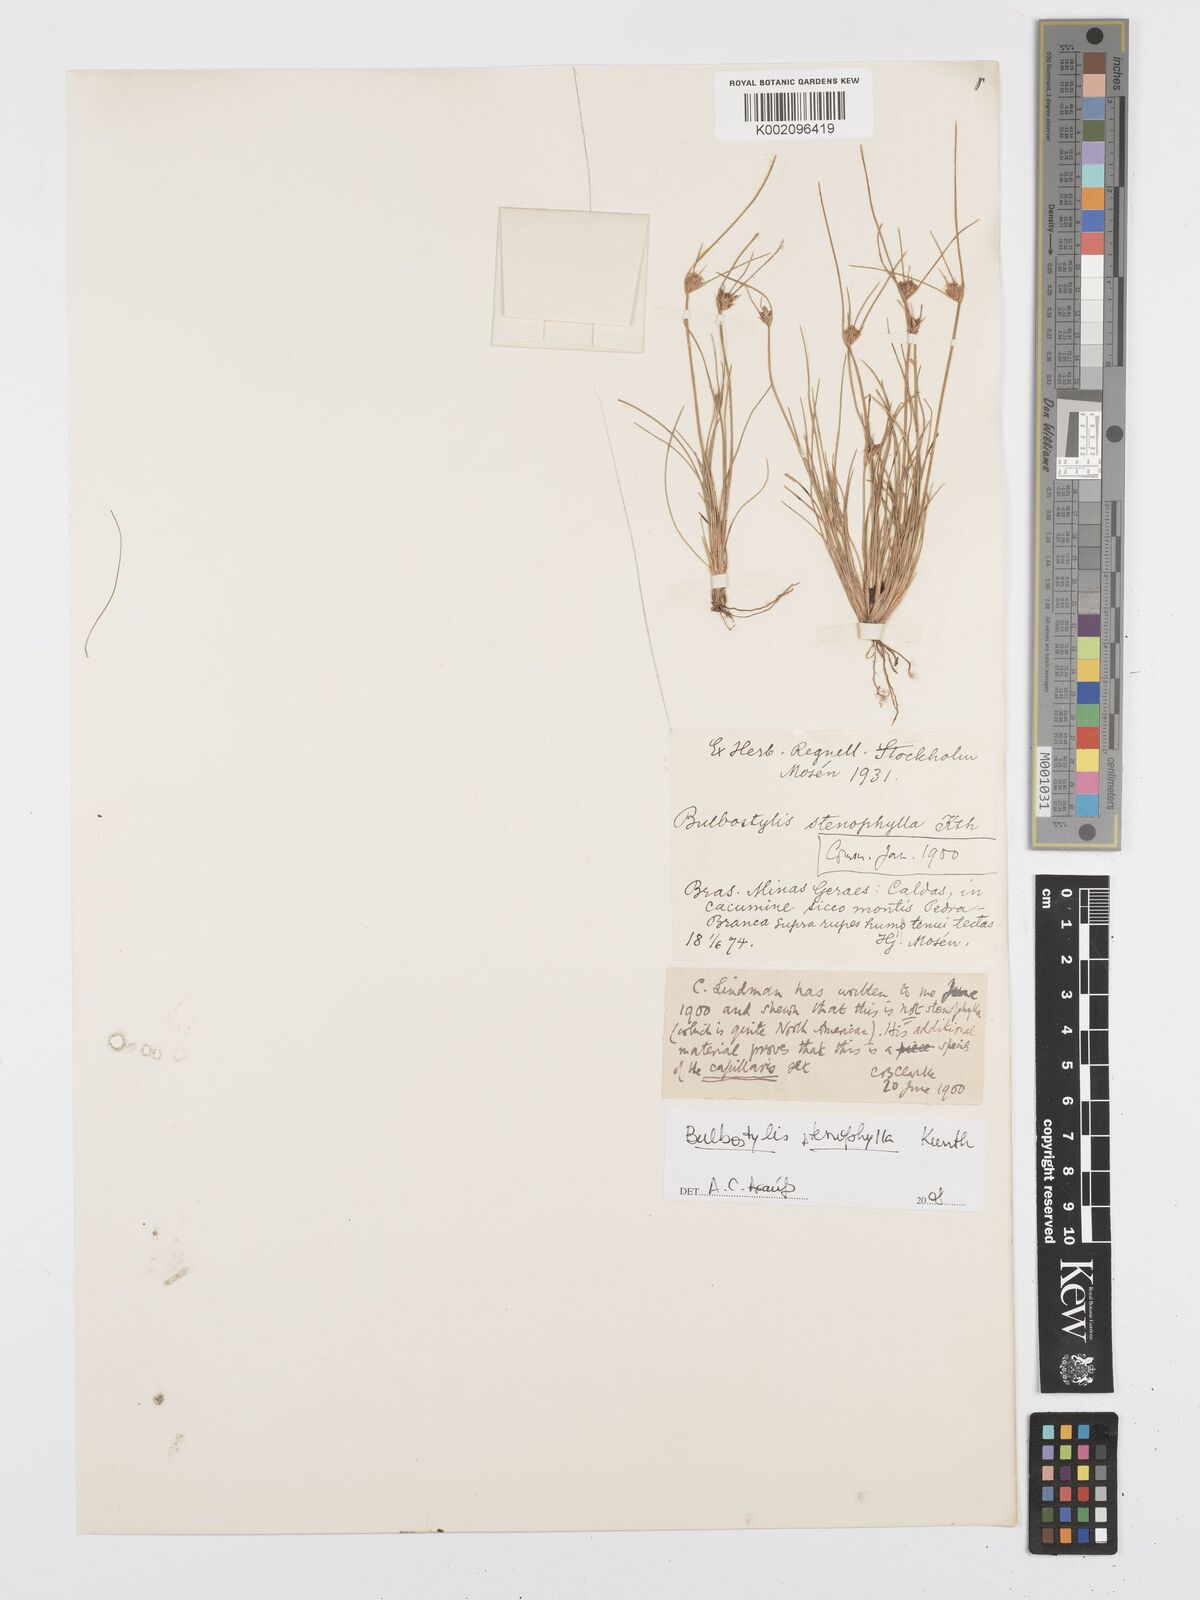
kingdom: Plantae
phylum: Tracheophyta
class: Liliopsida
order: Poales
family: Cyperaceae
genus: Bulbostylis
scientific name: Bulbostylis
